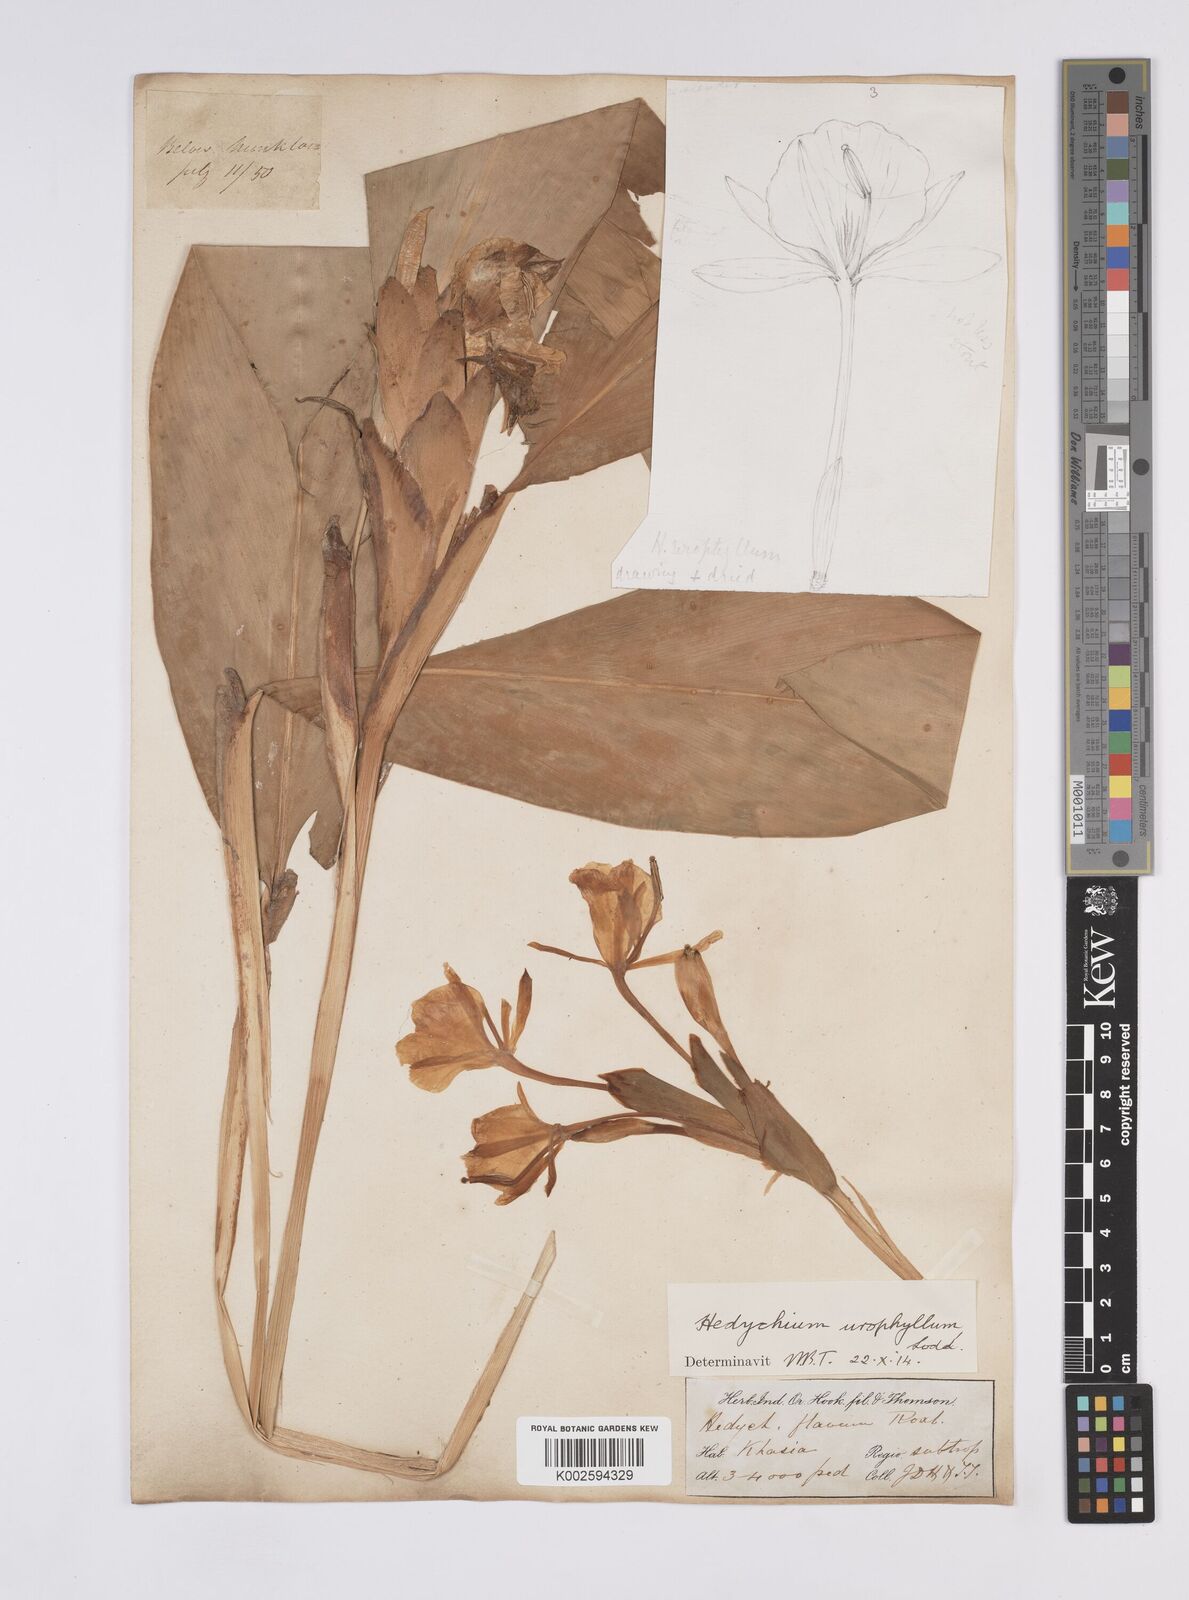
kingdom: Plantae
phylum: Tracheophyta
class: Liliopsida
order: Zingiberales
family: Zingiberaceae
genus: Hedychium
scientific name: Hedychium flavum
